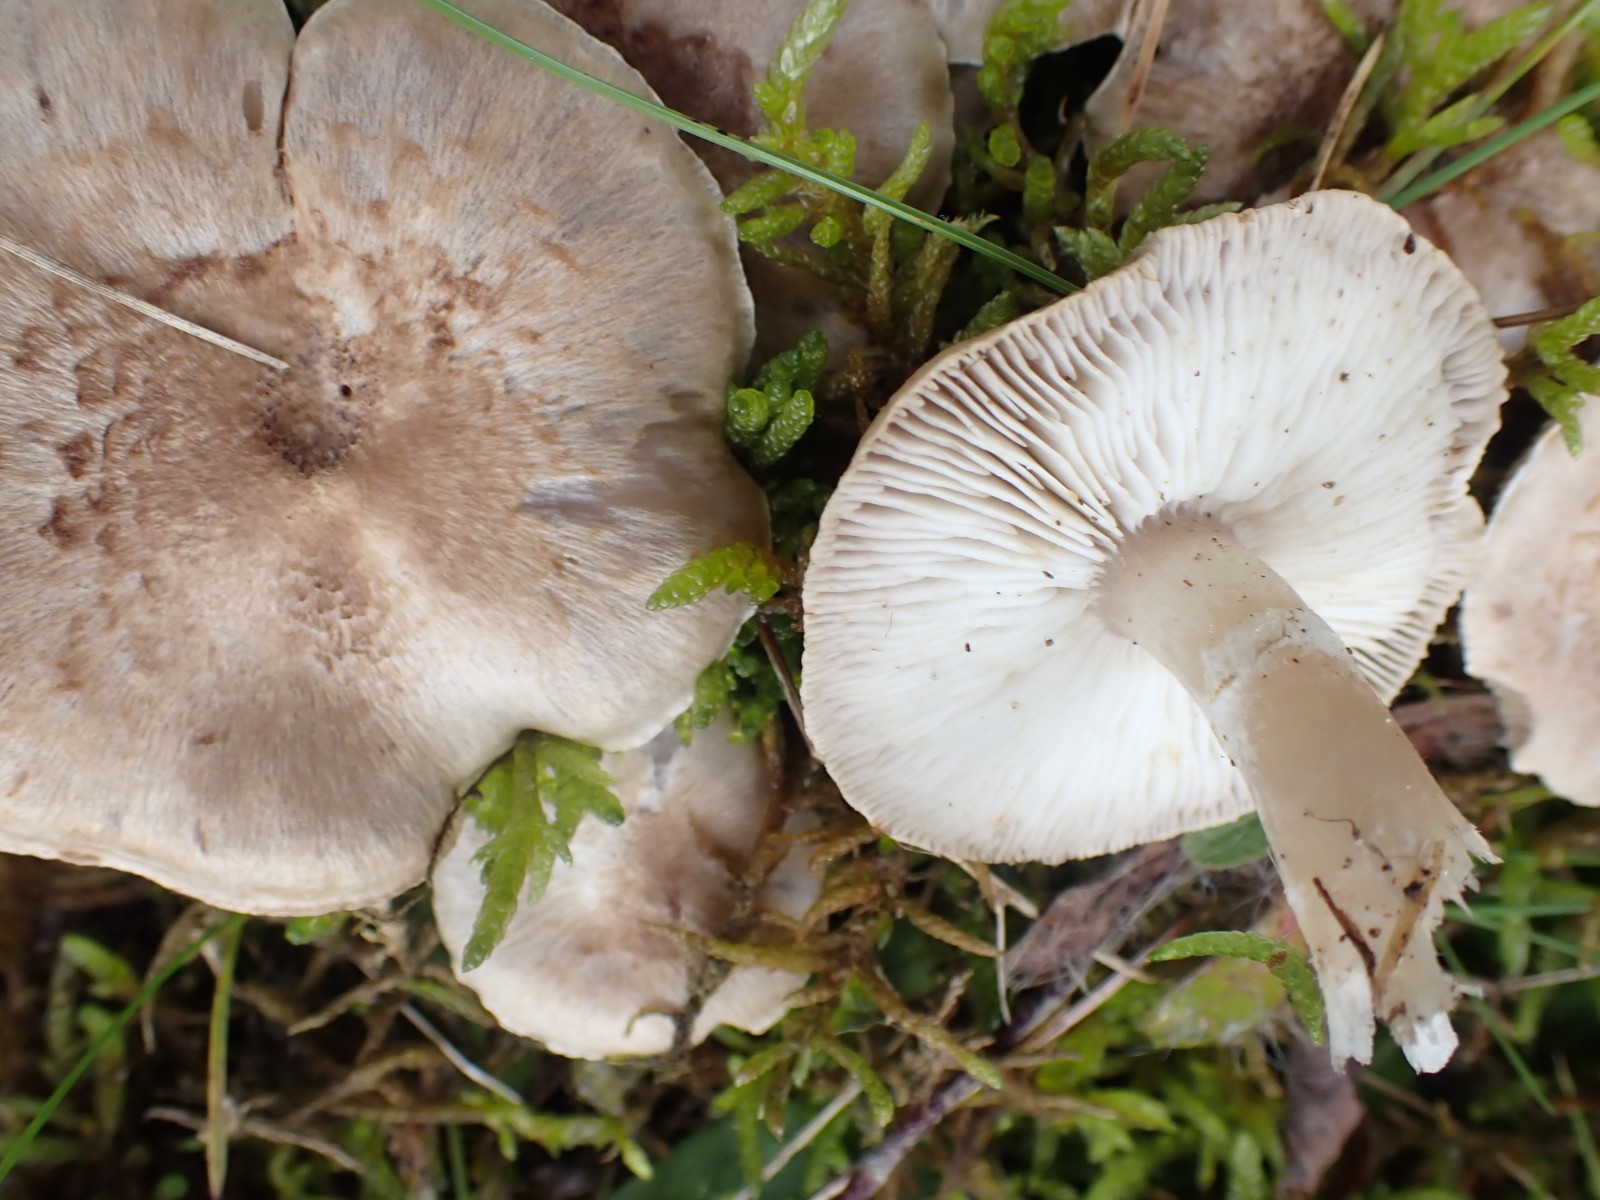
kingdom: Fungi
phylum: Basidiomycota
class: Agaricomycetes
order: Agaricales
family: Tricholomataceae
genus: Tricholoma
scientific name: Tricholoma cingulatum
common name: ring-ridderhat
